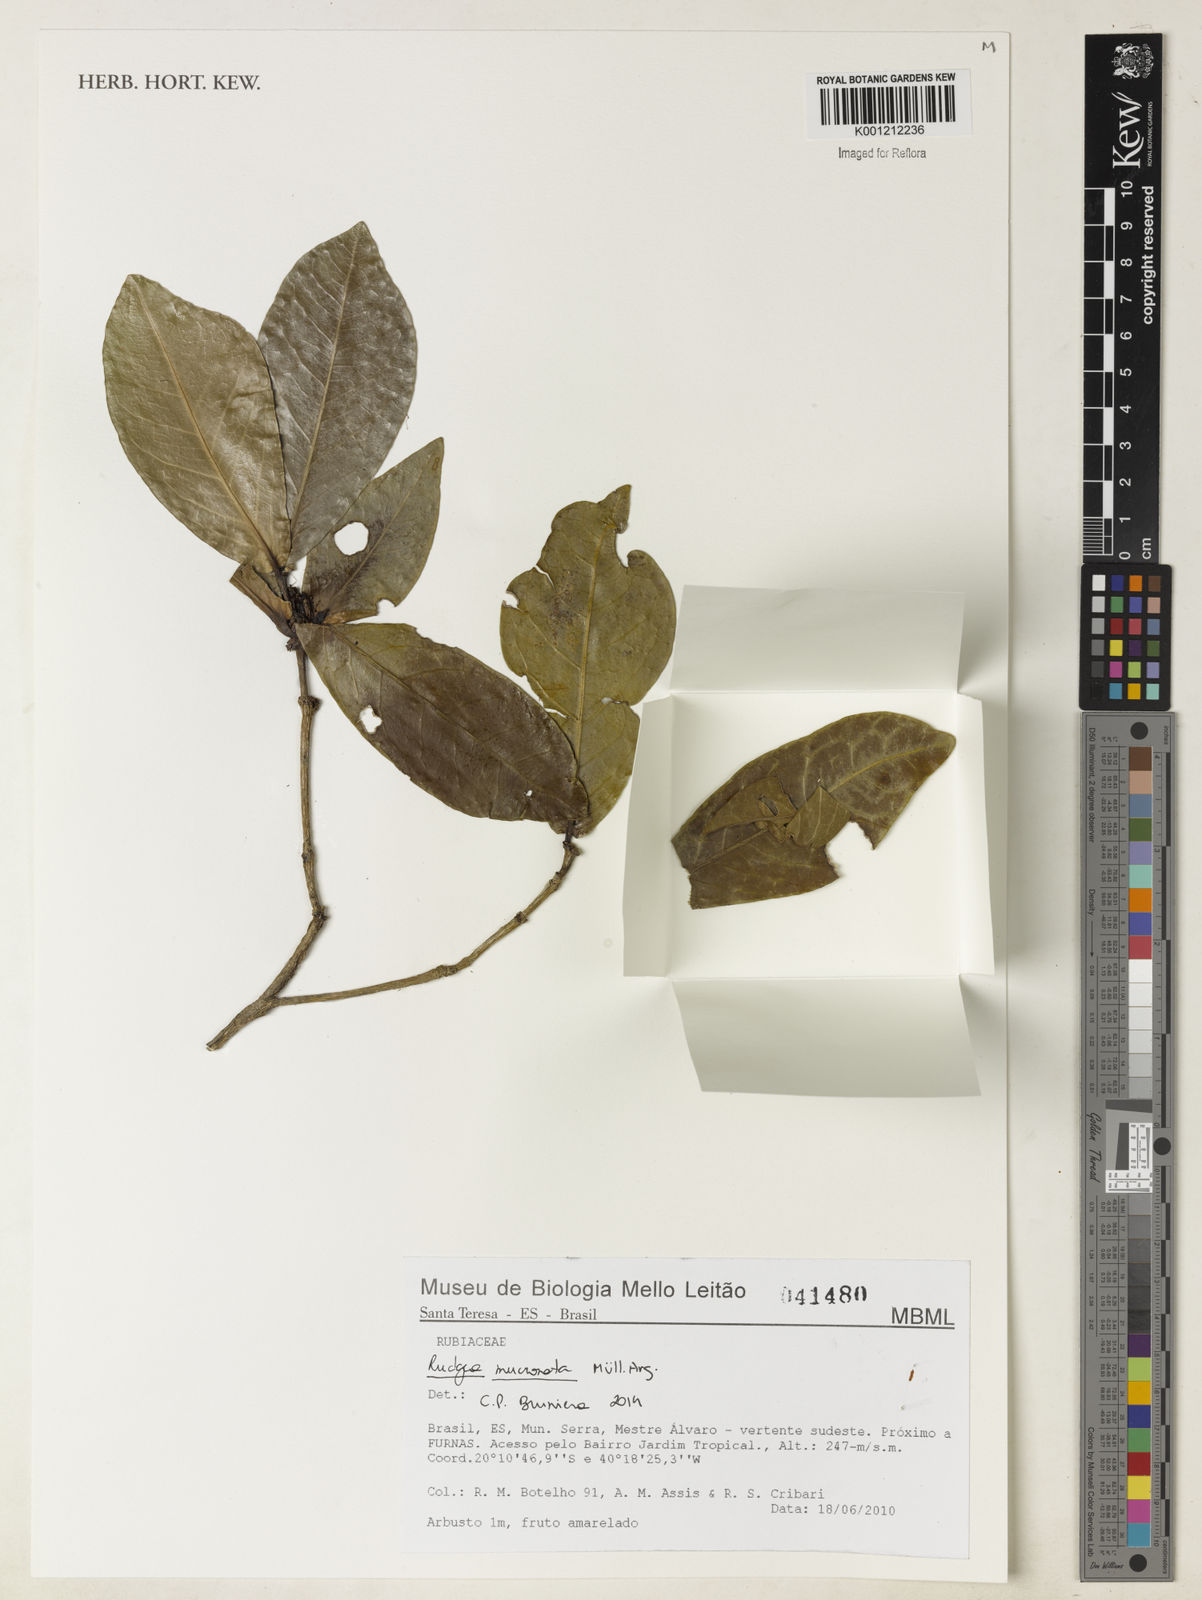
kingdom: Plantae
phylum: Tracheophyta
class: Magnoliopsida
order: Gentianales
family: Rubiaceae
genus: Rudgea
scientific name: Rudgea
